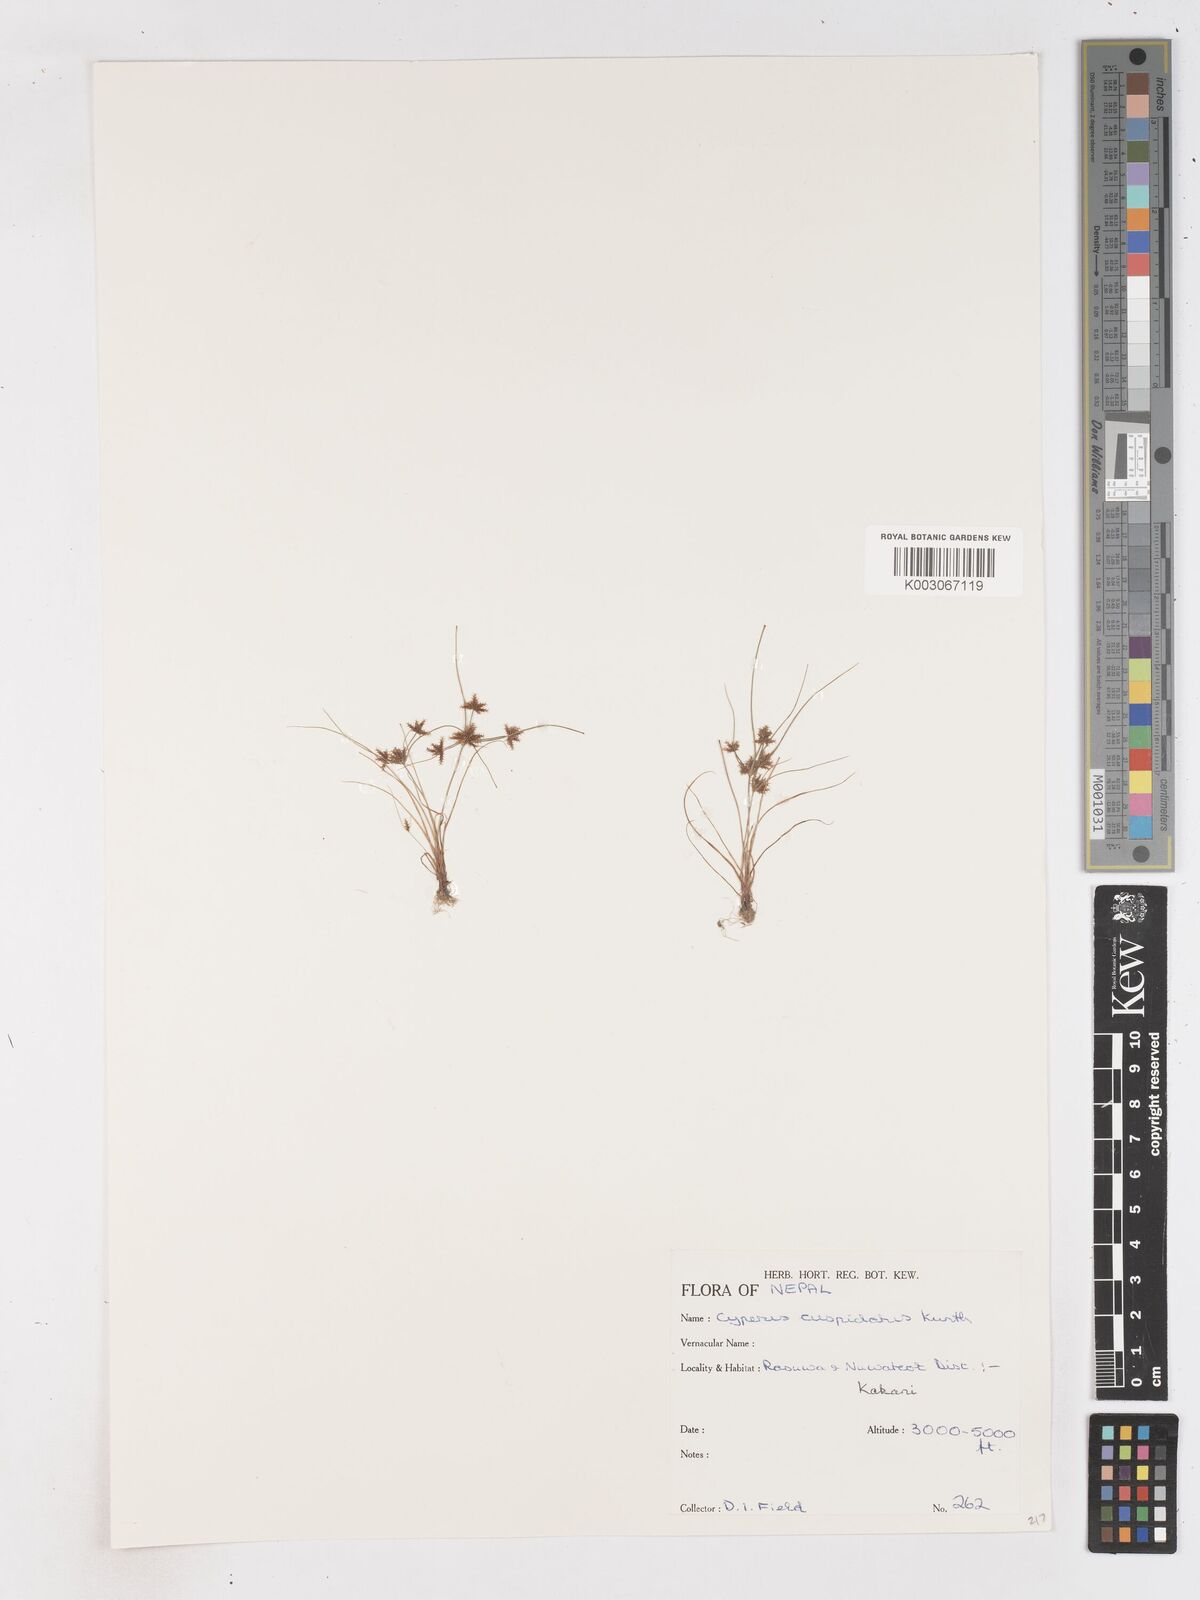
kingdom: Plantae
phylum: Tracheophyta
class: Liliopsida
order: Poales
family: Cyperaceae
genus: Cyperus
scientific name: Cyperus cuspidatus
